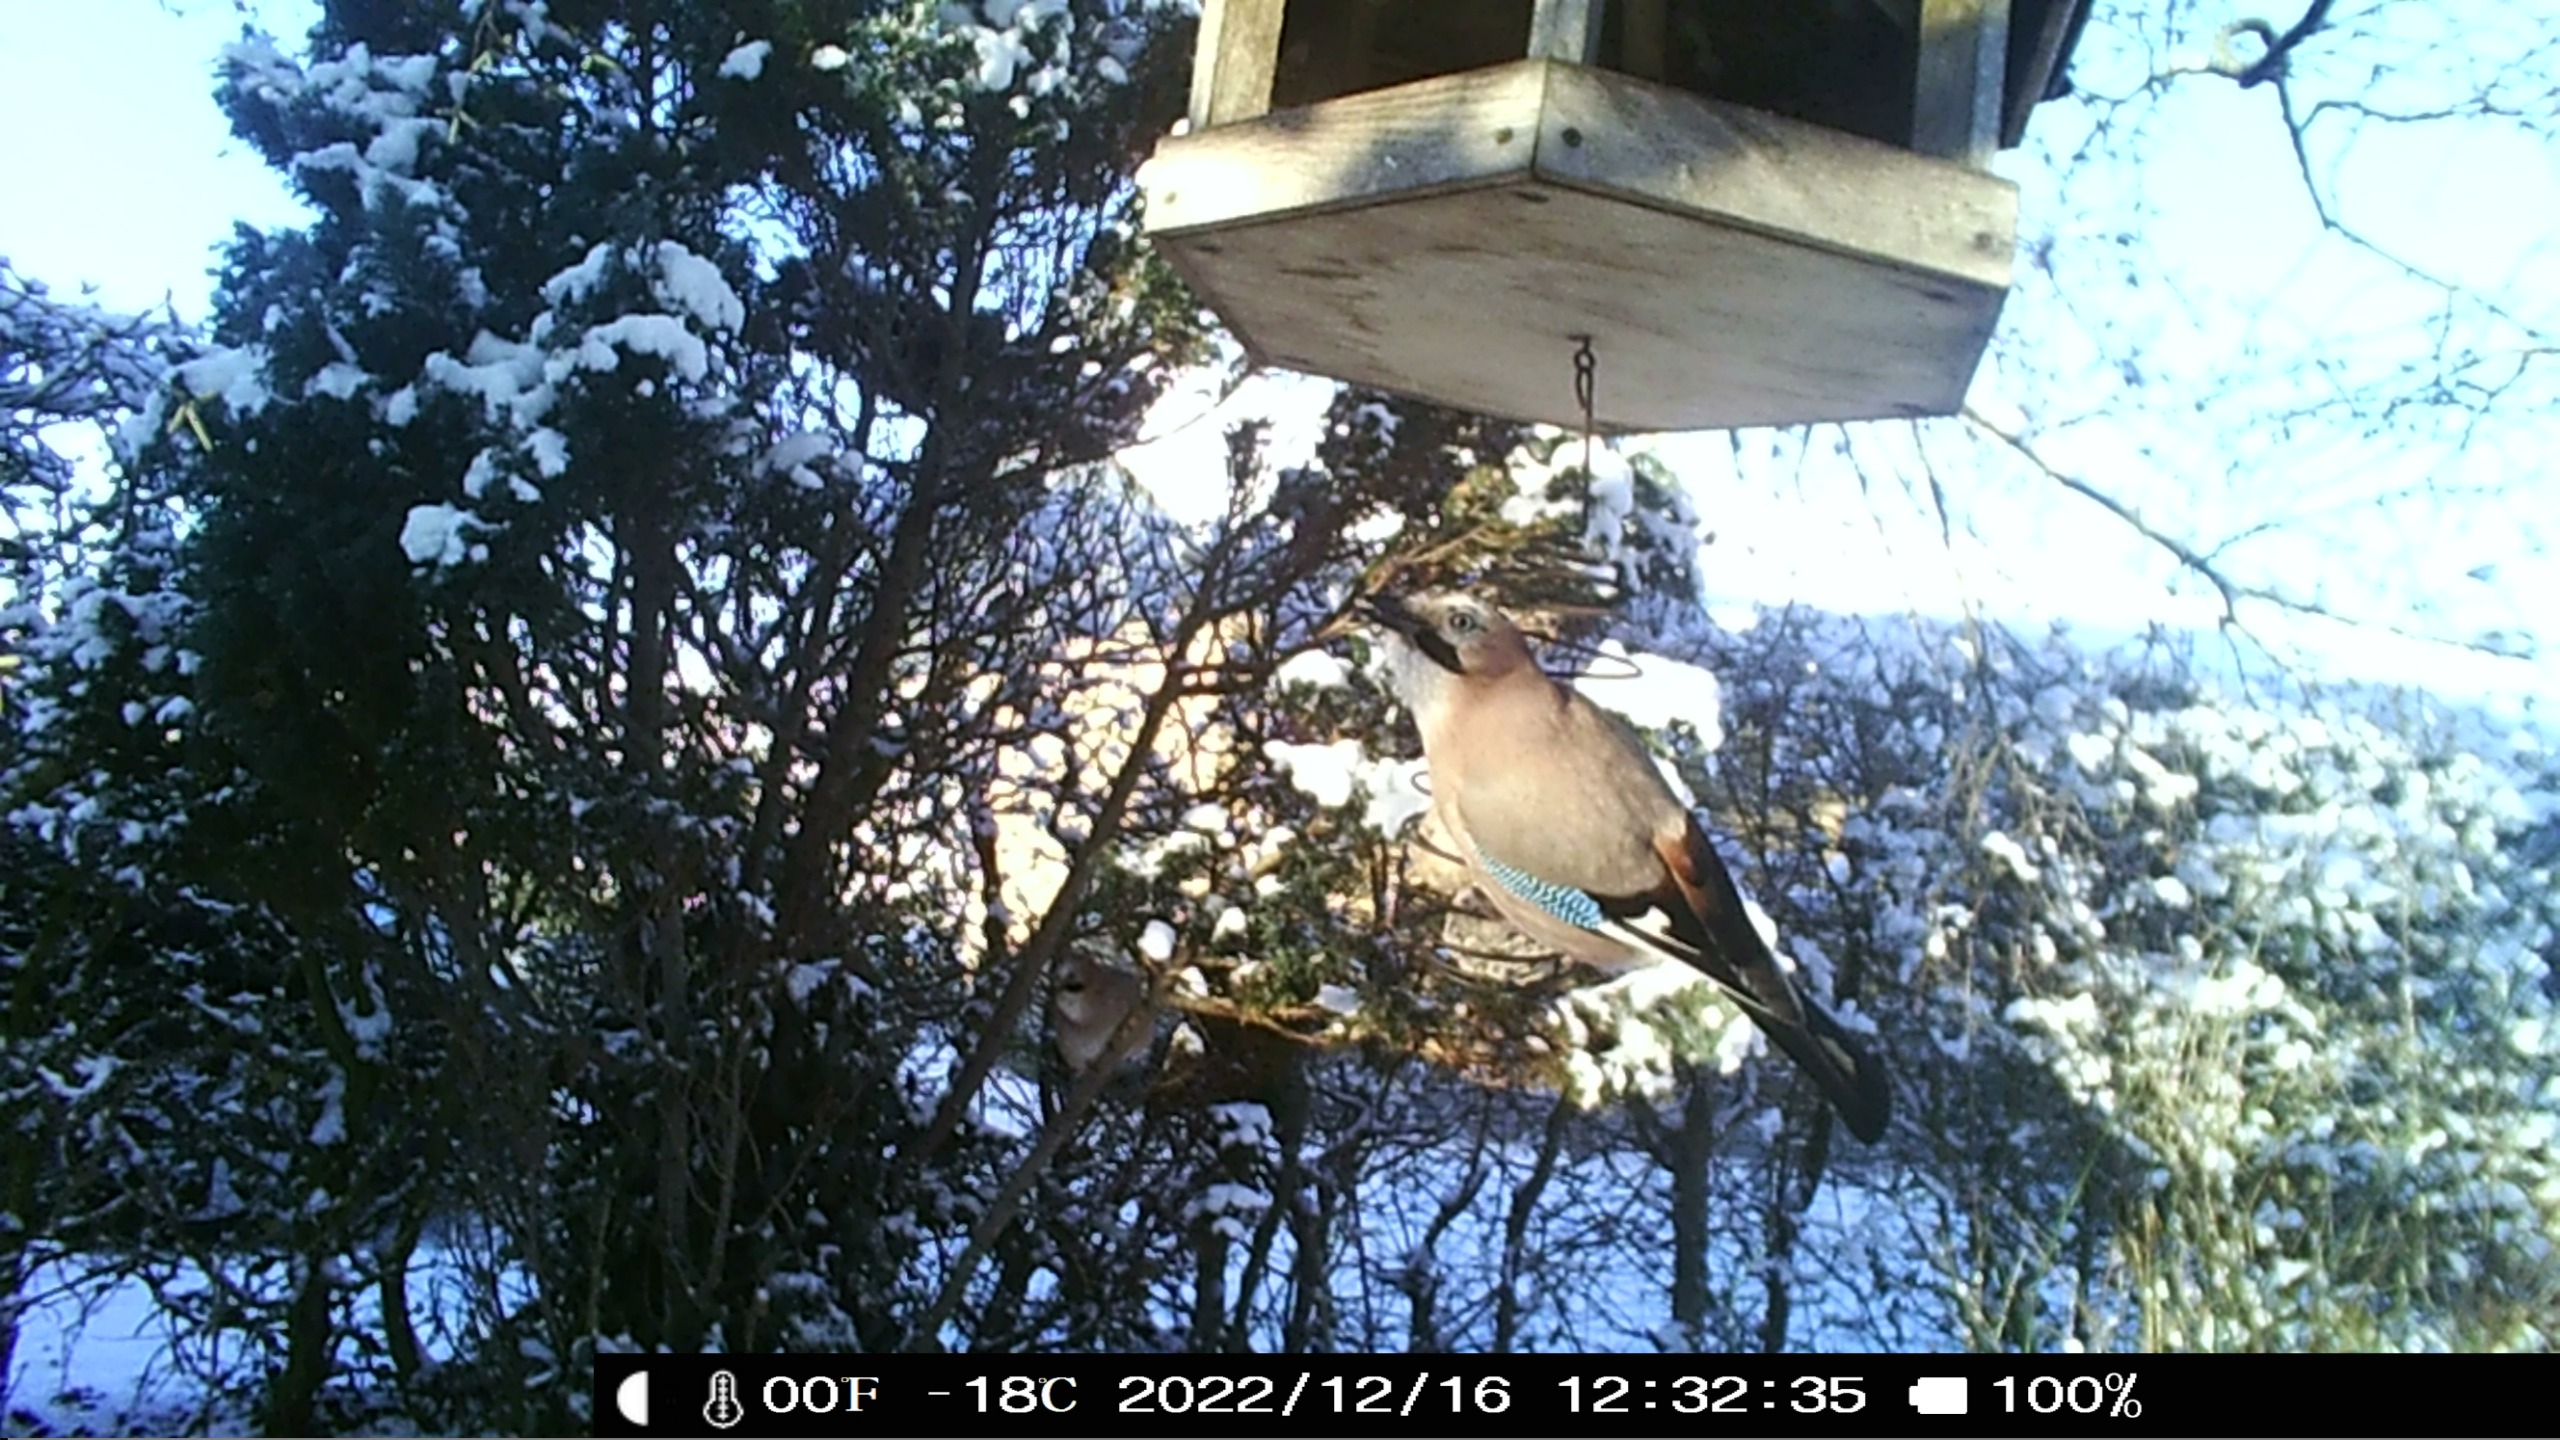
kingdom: Animalia
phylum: Chordata
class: Aves
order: Passeriformes
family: Corvidae
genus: Garrulus
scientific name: Garrulus glandarius
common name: Skovskade
